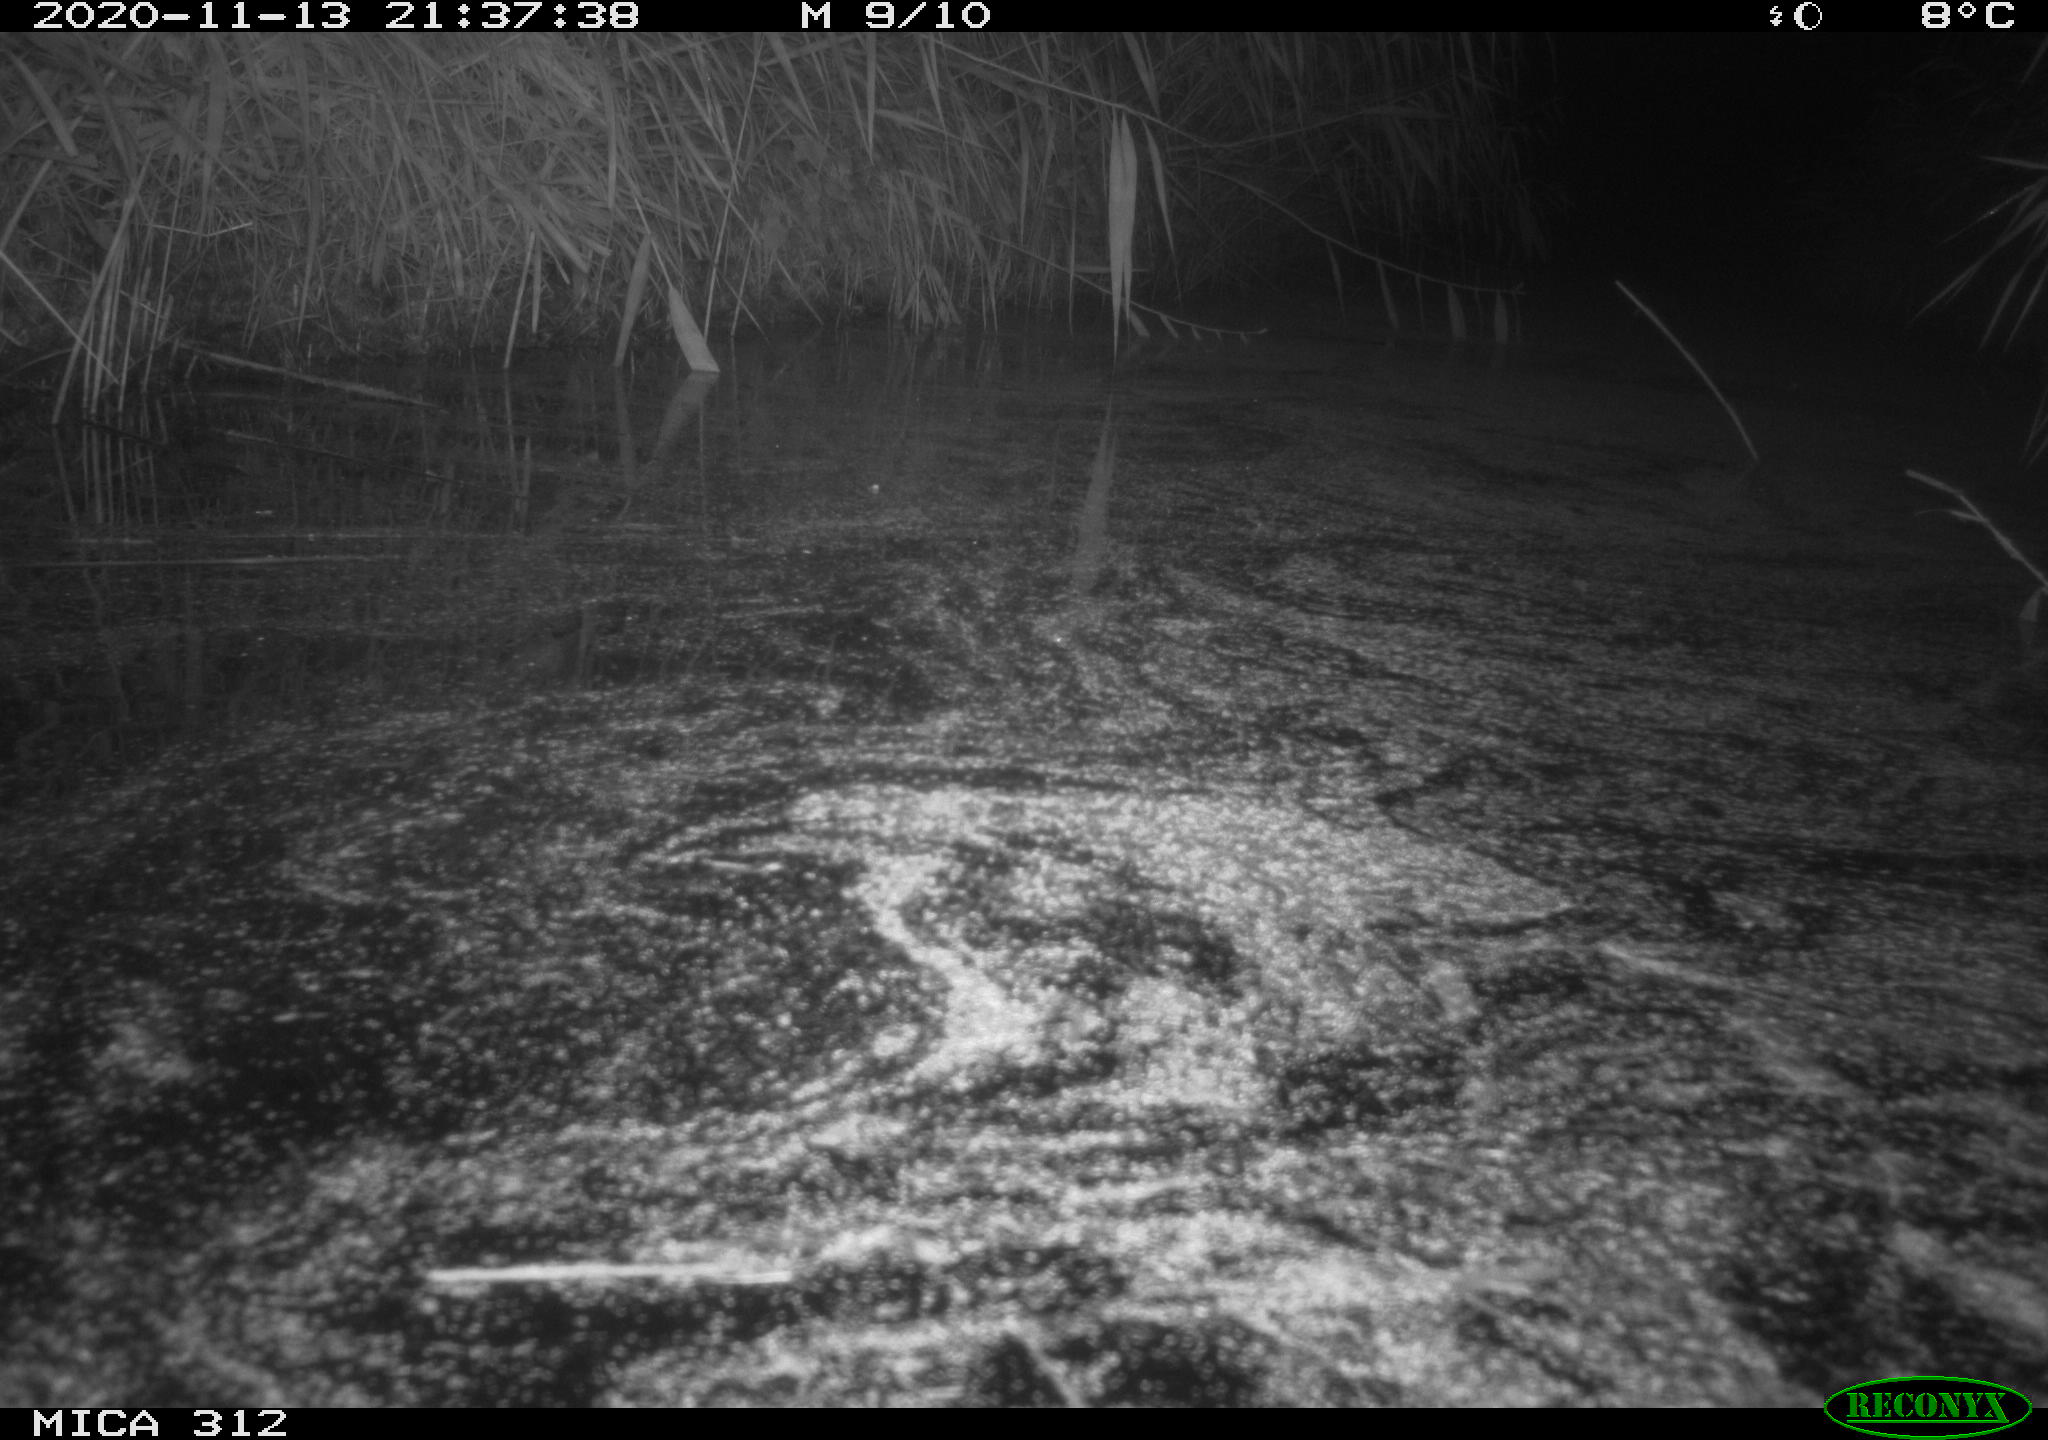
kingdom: Animalia
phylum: Chordata
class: Mammalia
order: Rodentia
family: Muridae
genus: Rattus
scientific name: Rattus norvegicus
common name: Brown rat
